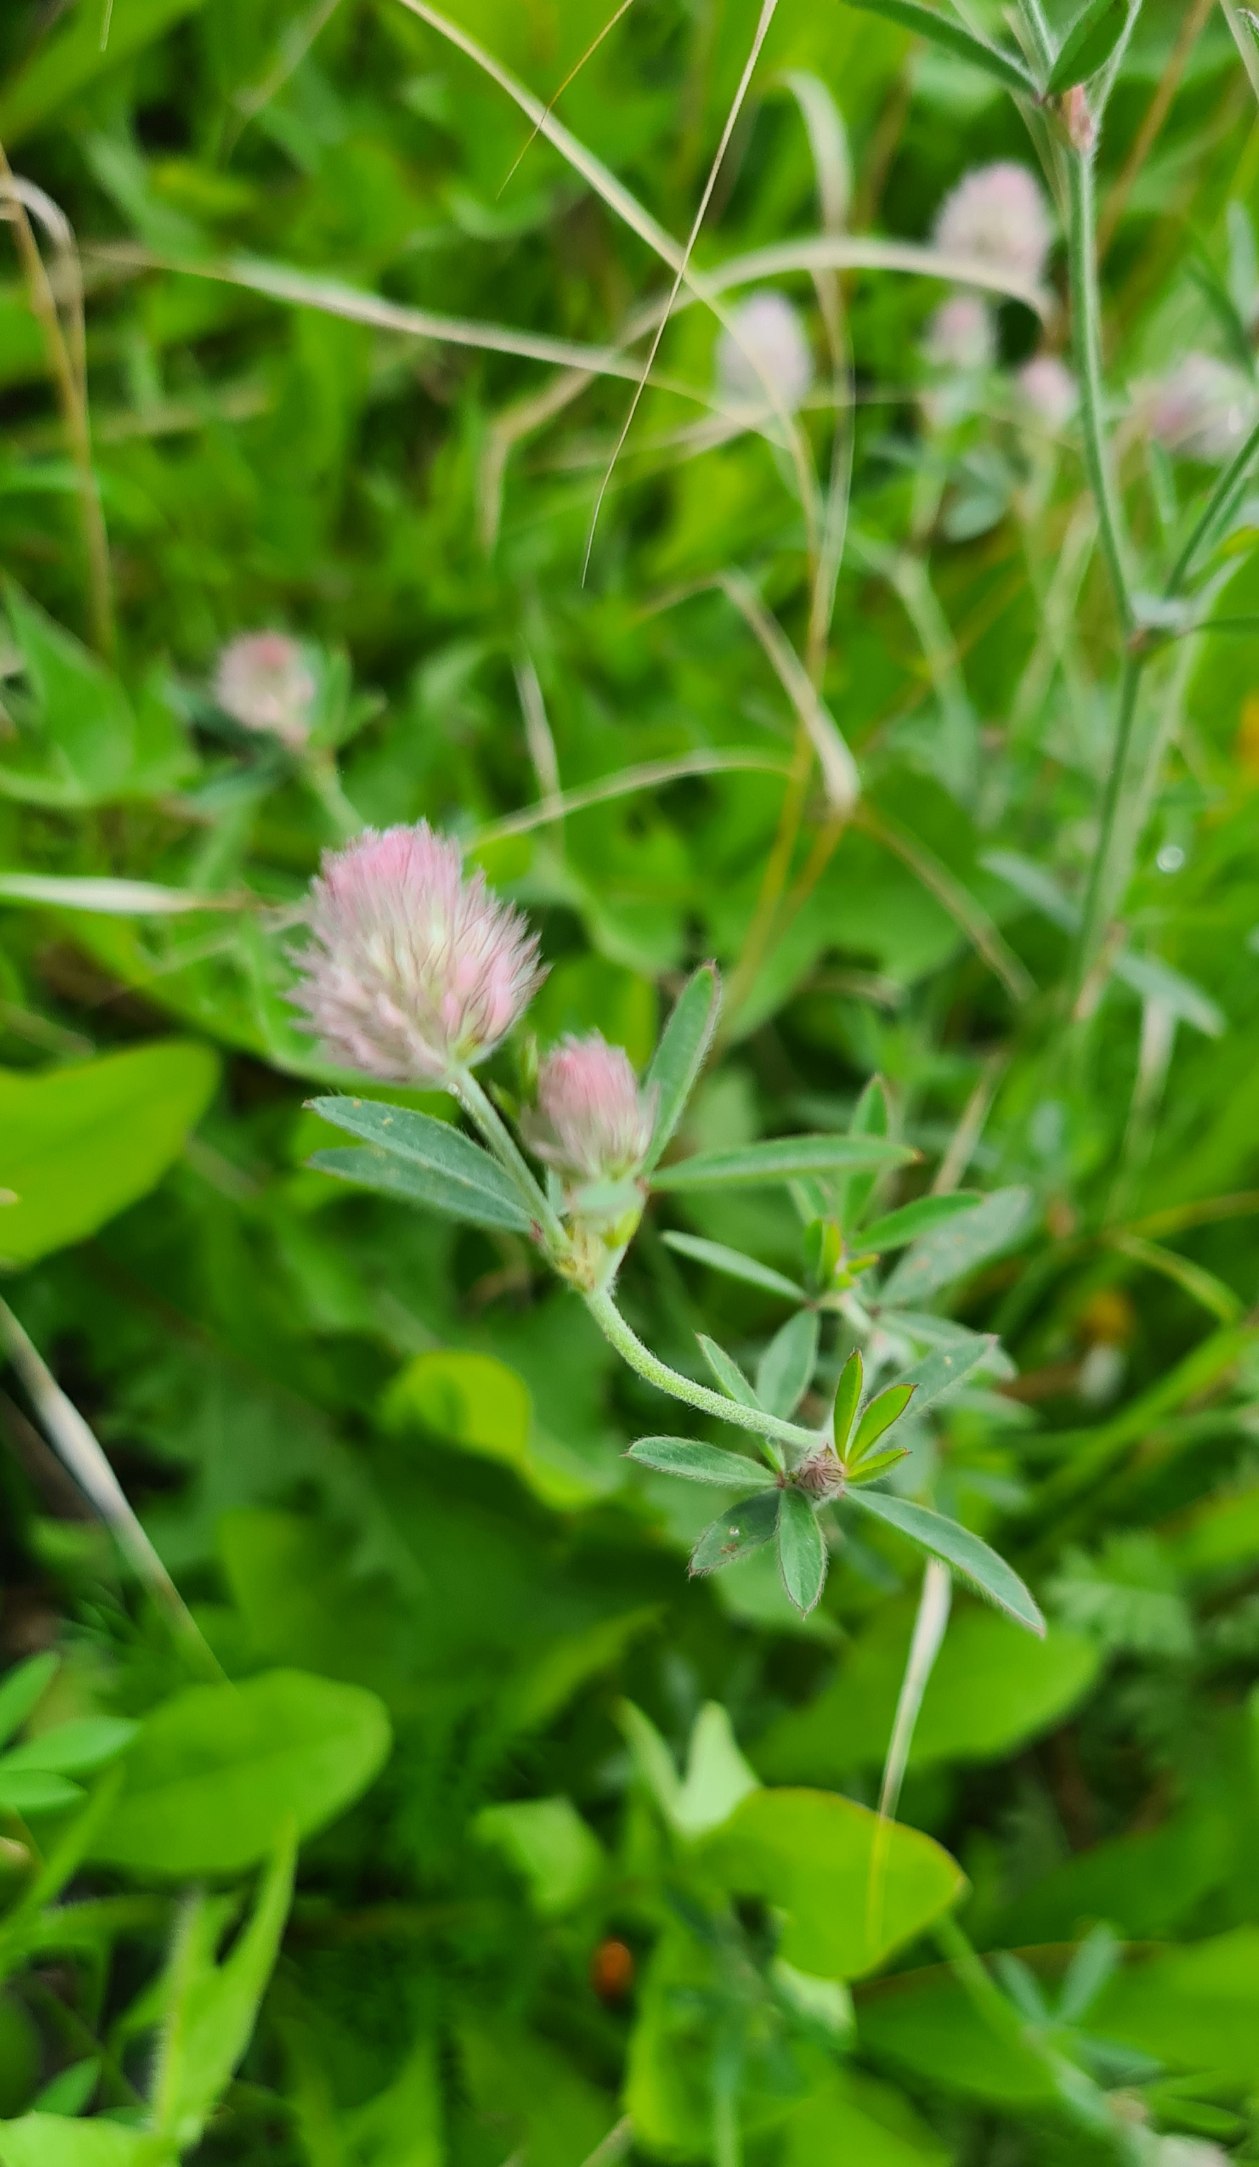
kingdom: Plantae
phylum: Tracheophyta
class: Magnoliopsida
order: Fabales
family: Fabaceae
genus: Trifolium
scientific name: Trifolium arvense
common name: Hare-kløver
